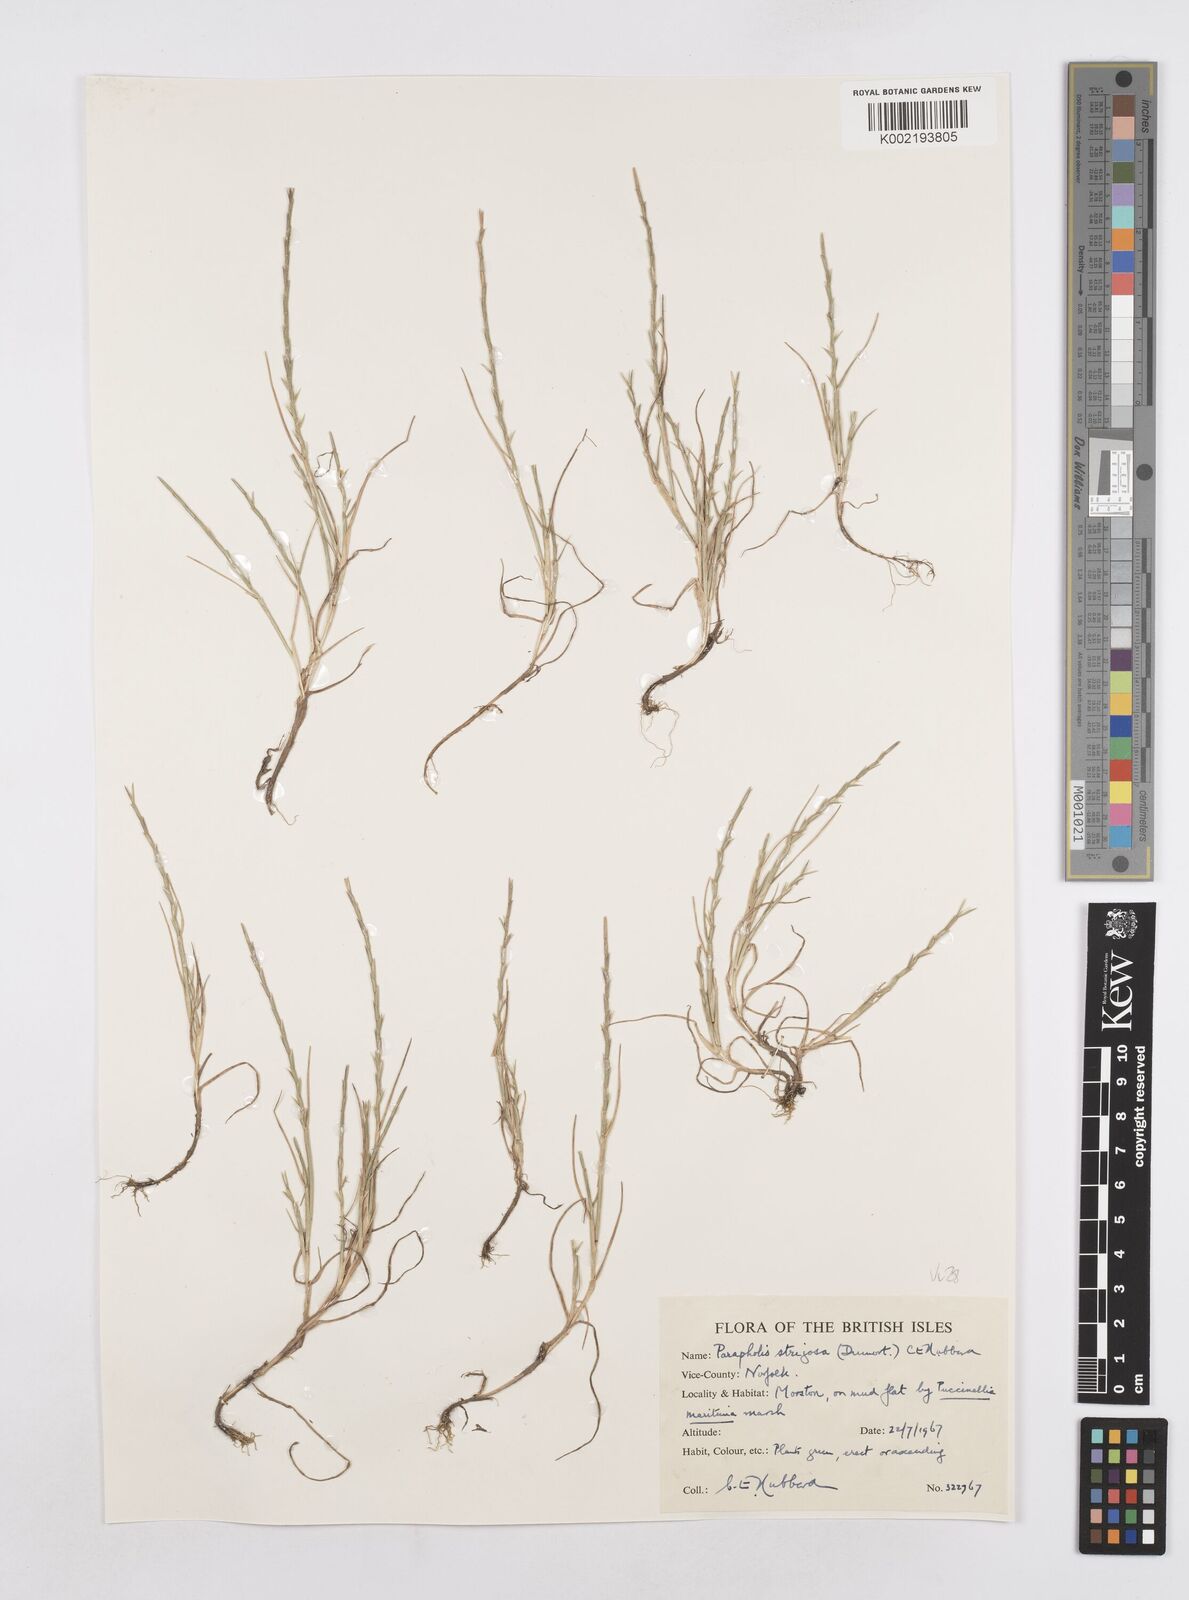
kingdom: Plantae
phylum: Tracheophyta
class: Liliopsida
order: Poales
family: Poaceae
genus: Parapholis
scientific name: Parapholis strigosa
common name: Hard-grass
